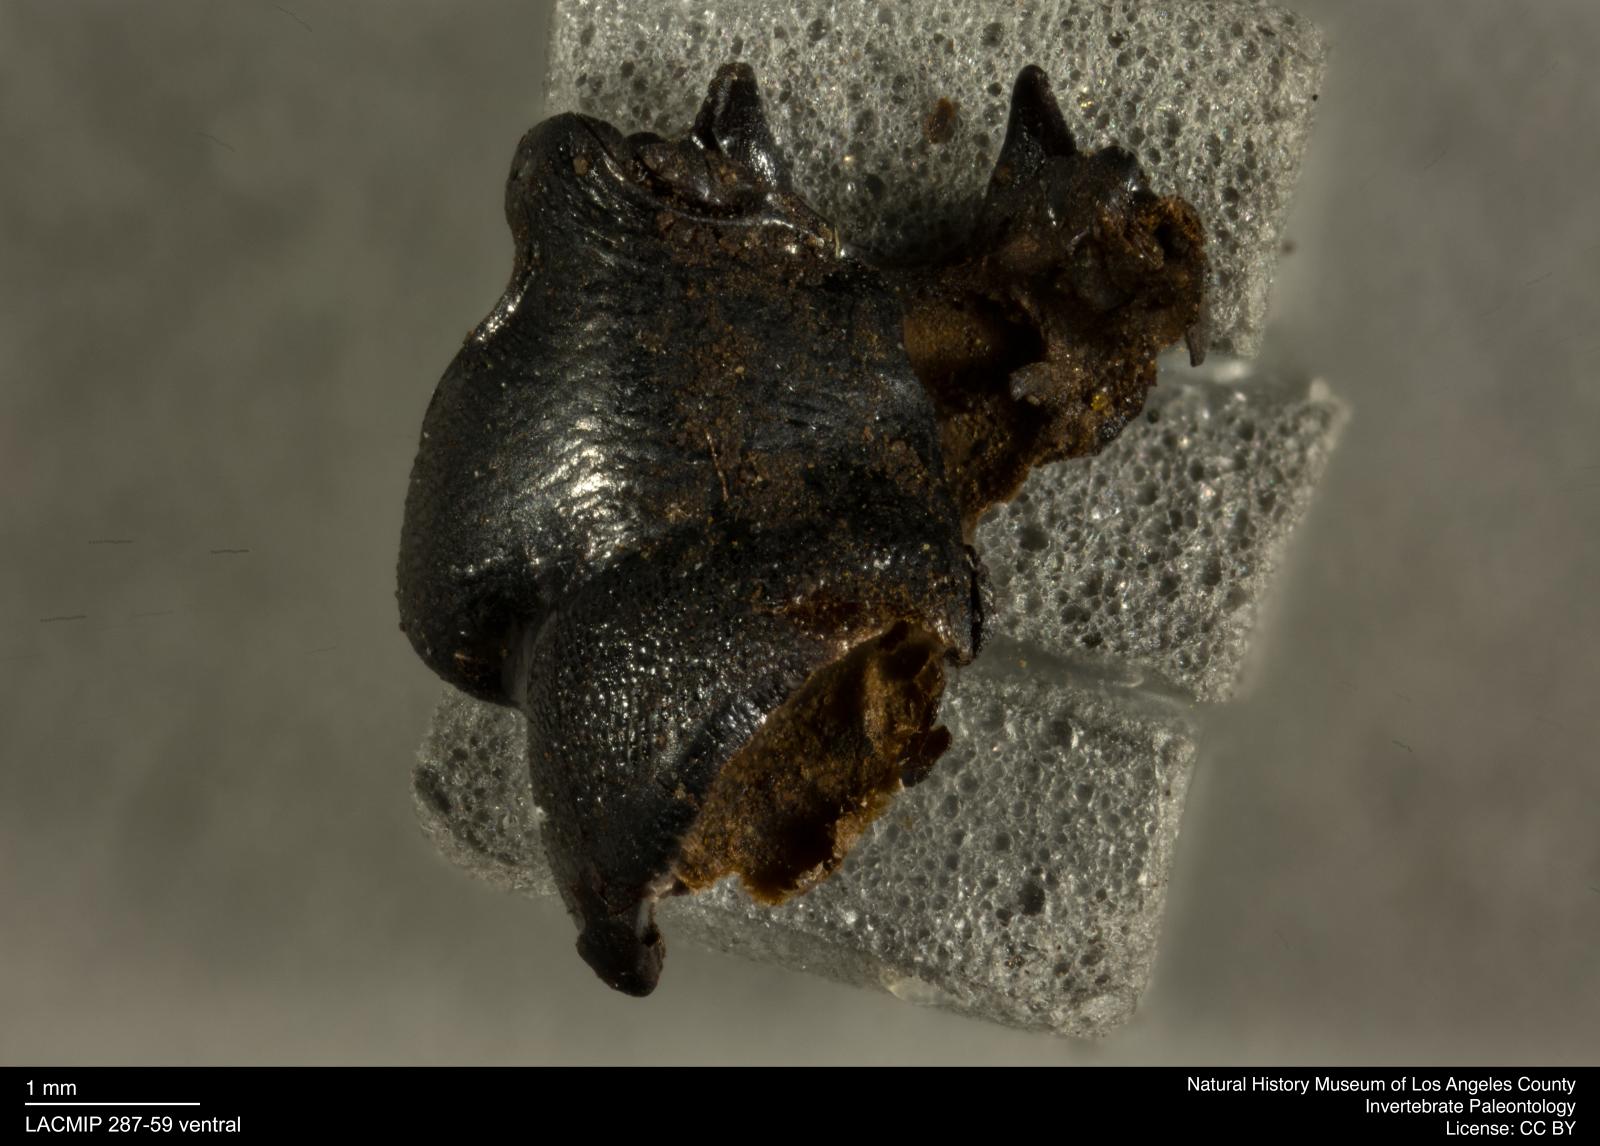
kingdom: Animalia
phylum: Arthropoda
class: Insecta
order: Coleoptera
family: Staphylinidae
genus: Nicrophorus
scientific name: Nicrophorus marginatus
